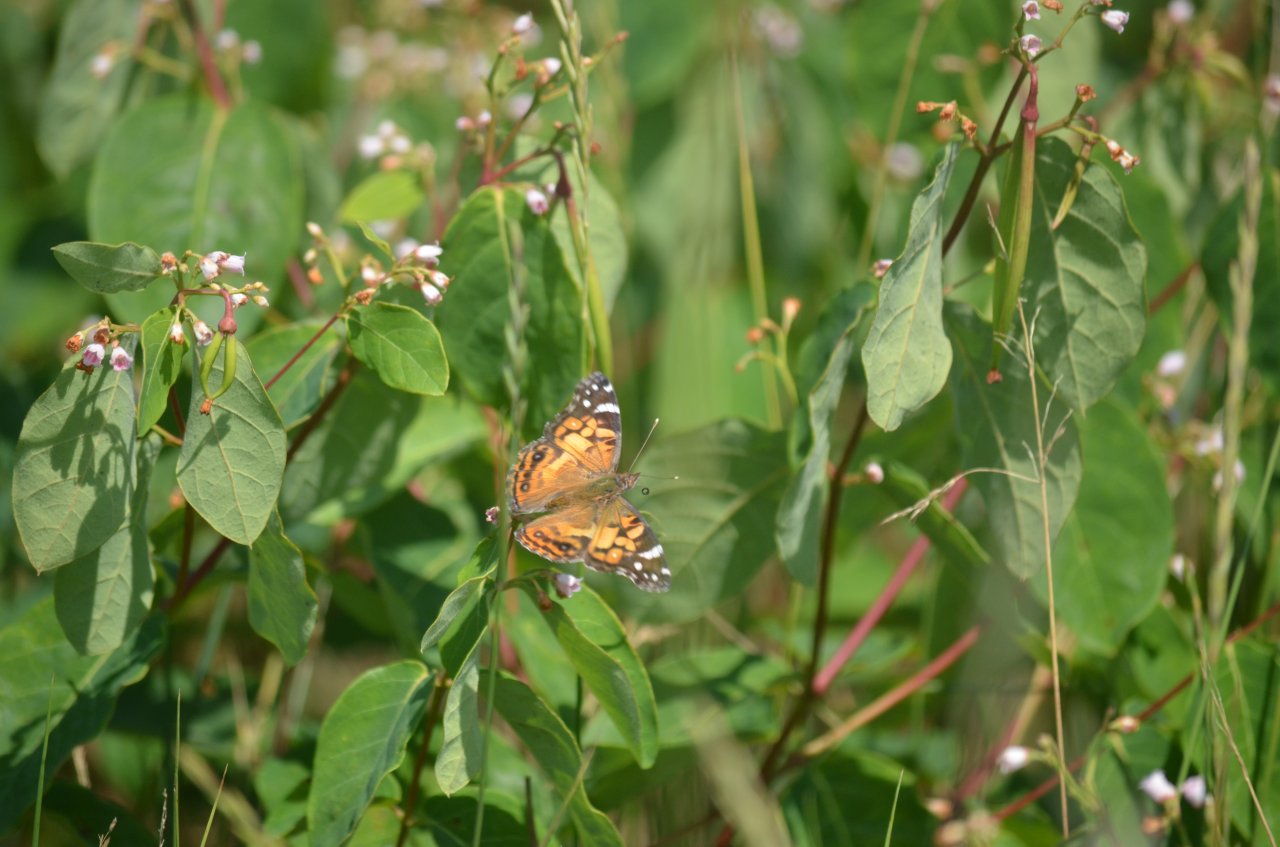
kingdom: Animalia
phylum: Arthropoda
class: Insecta
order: Lepidoptera
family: Nymphalidae
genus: Vanessa
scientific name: Vanessa virginiensis
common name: American Lady
